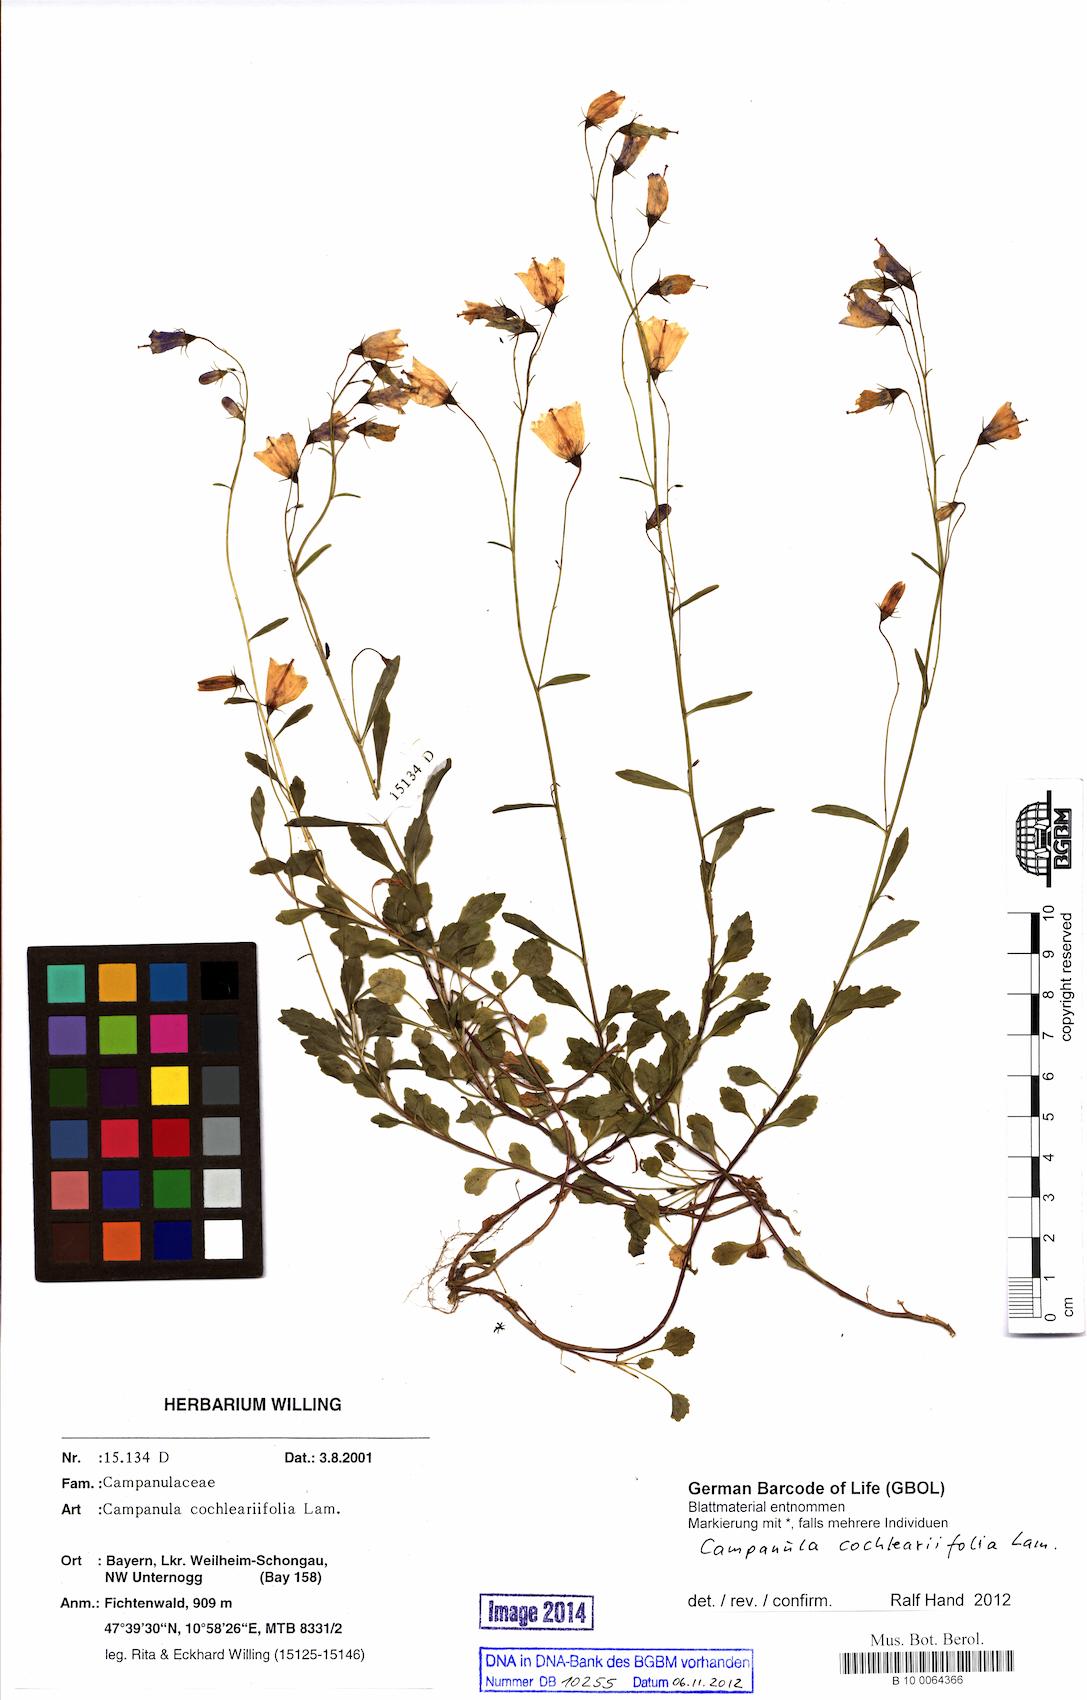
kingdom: Plantae
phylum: Tracheophyta
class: Magnoliopsida
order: Asterales
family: Campanulaceae
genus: Campanula
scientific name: Campanula cochleariifolia
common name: Fairies'-thimbles
